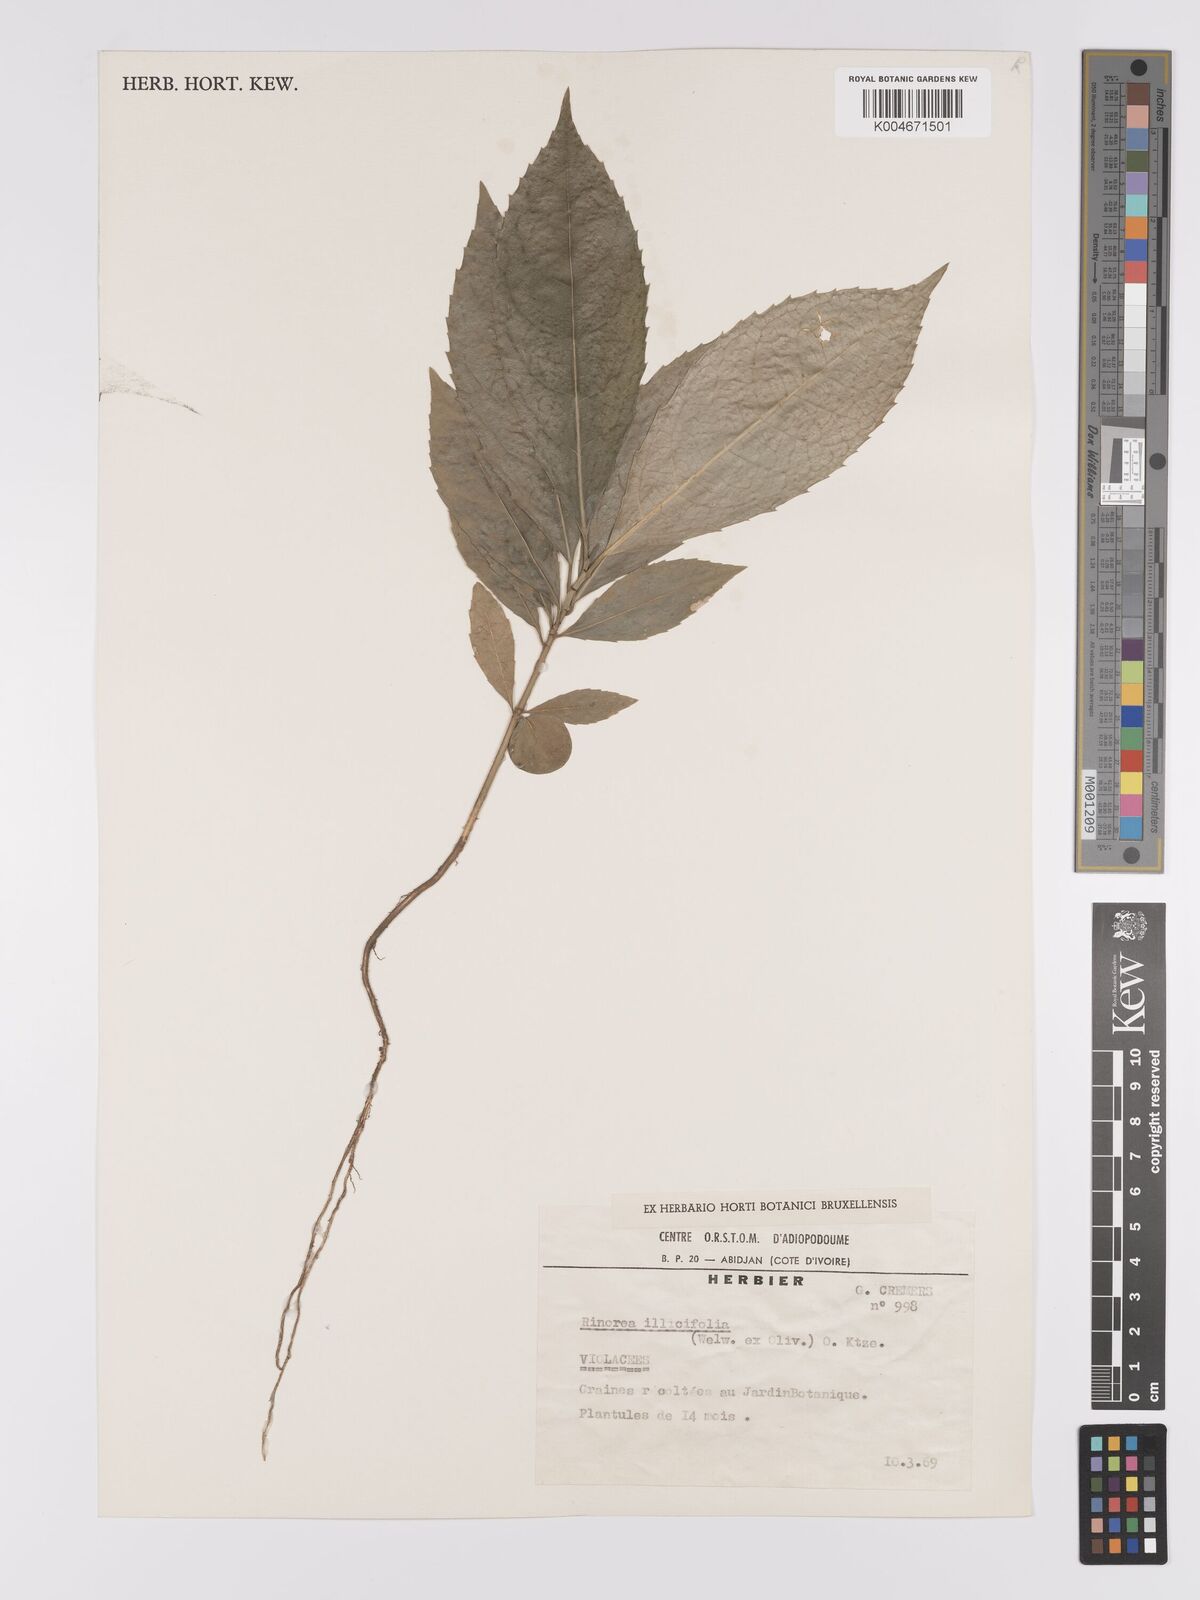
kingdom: Plantae
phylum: Tracheophyta
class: Magnoliopsida
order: Malpighiales
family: Violaceae
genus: Rinorea
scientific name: Rinorea ilicifolia
